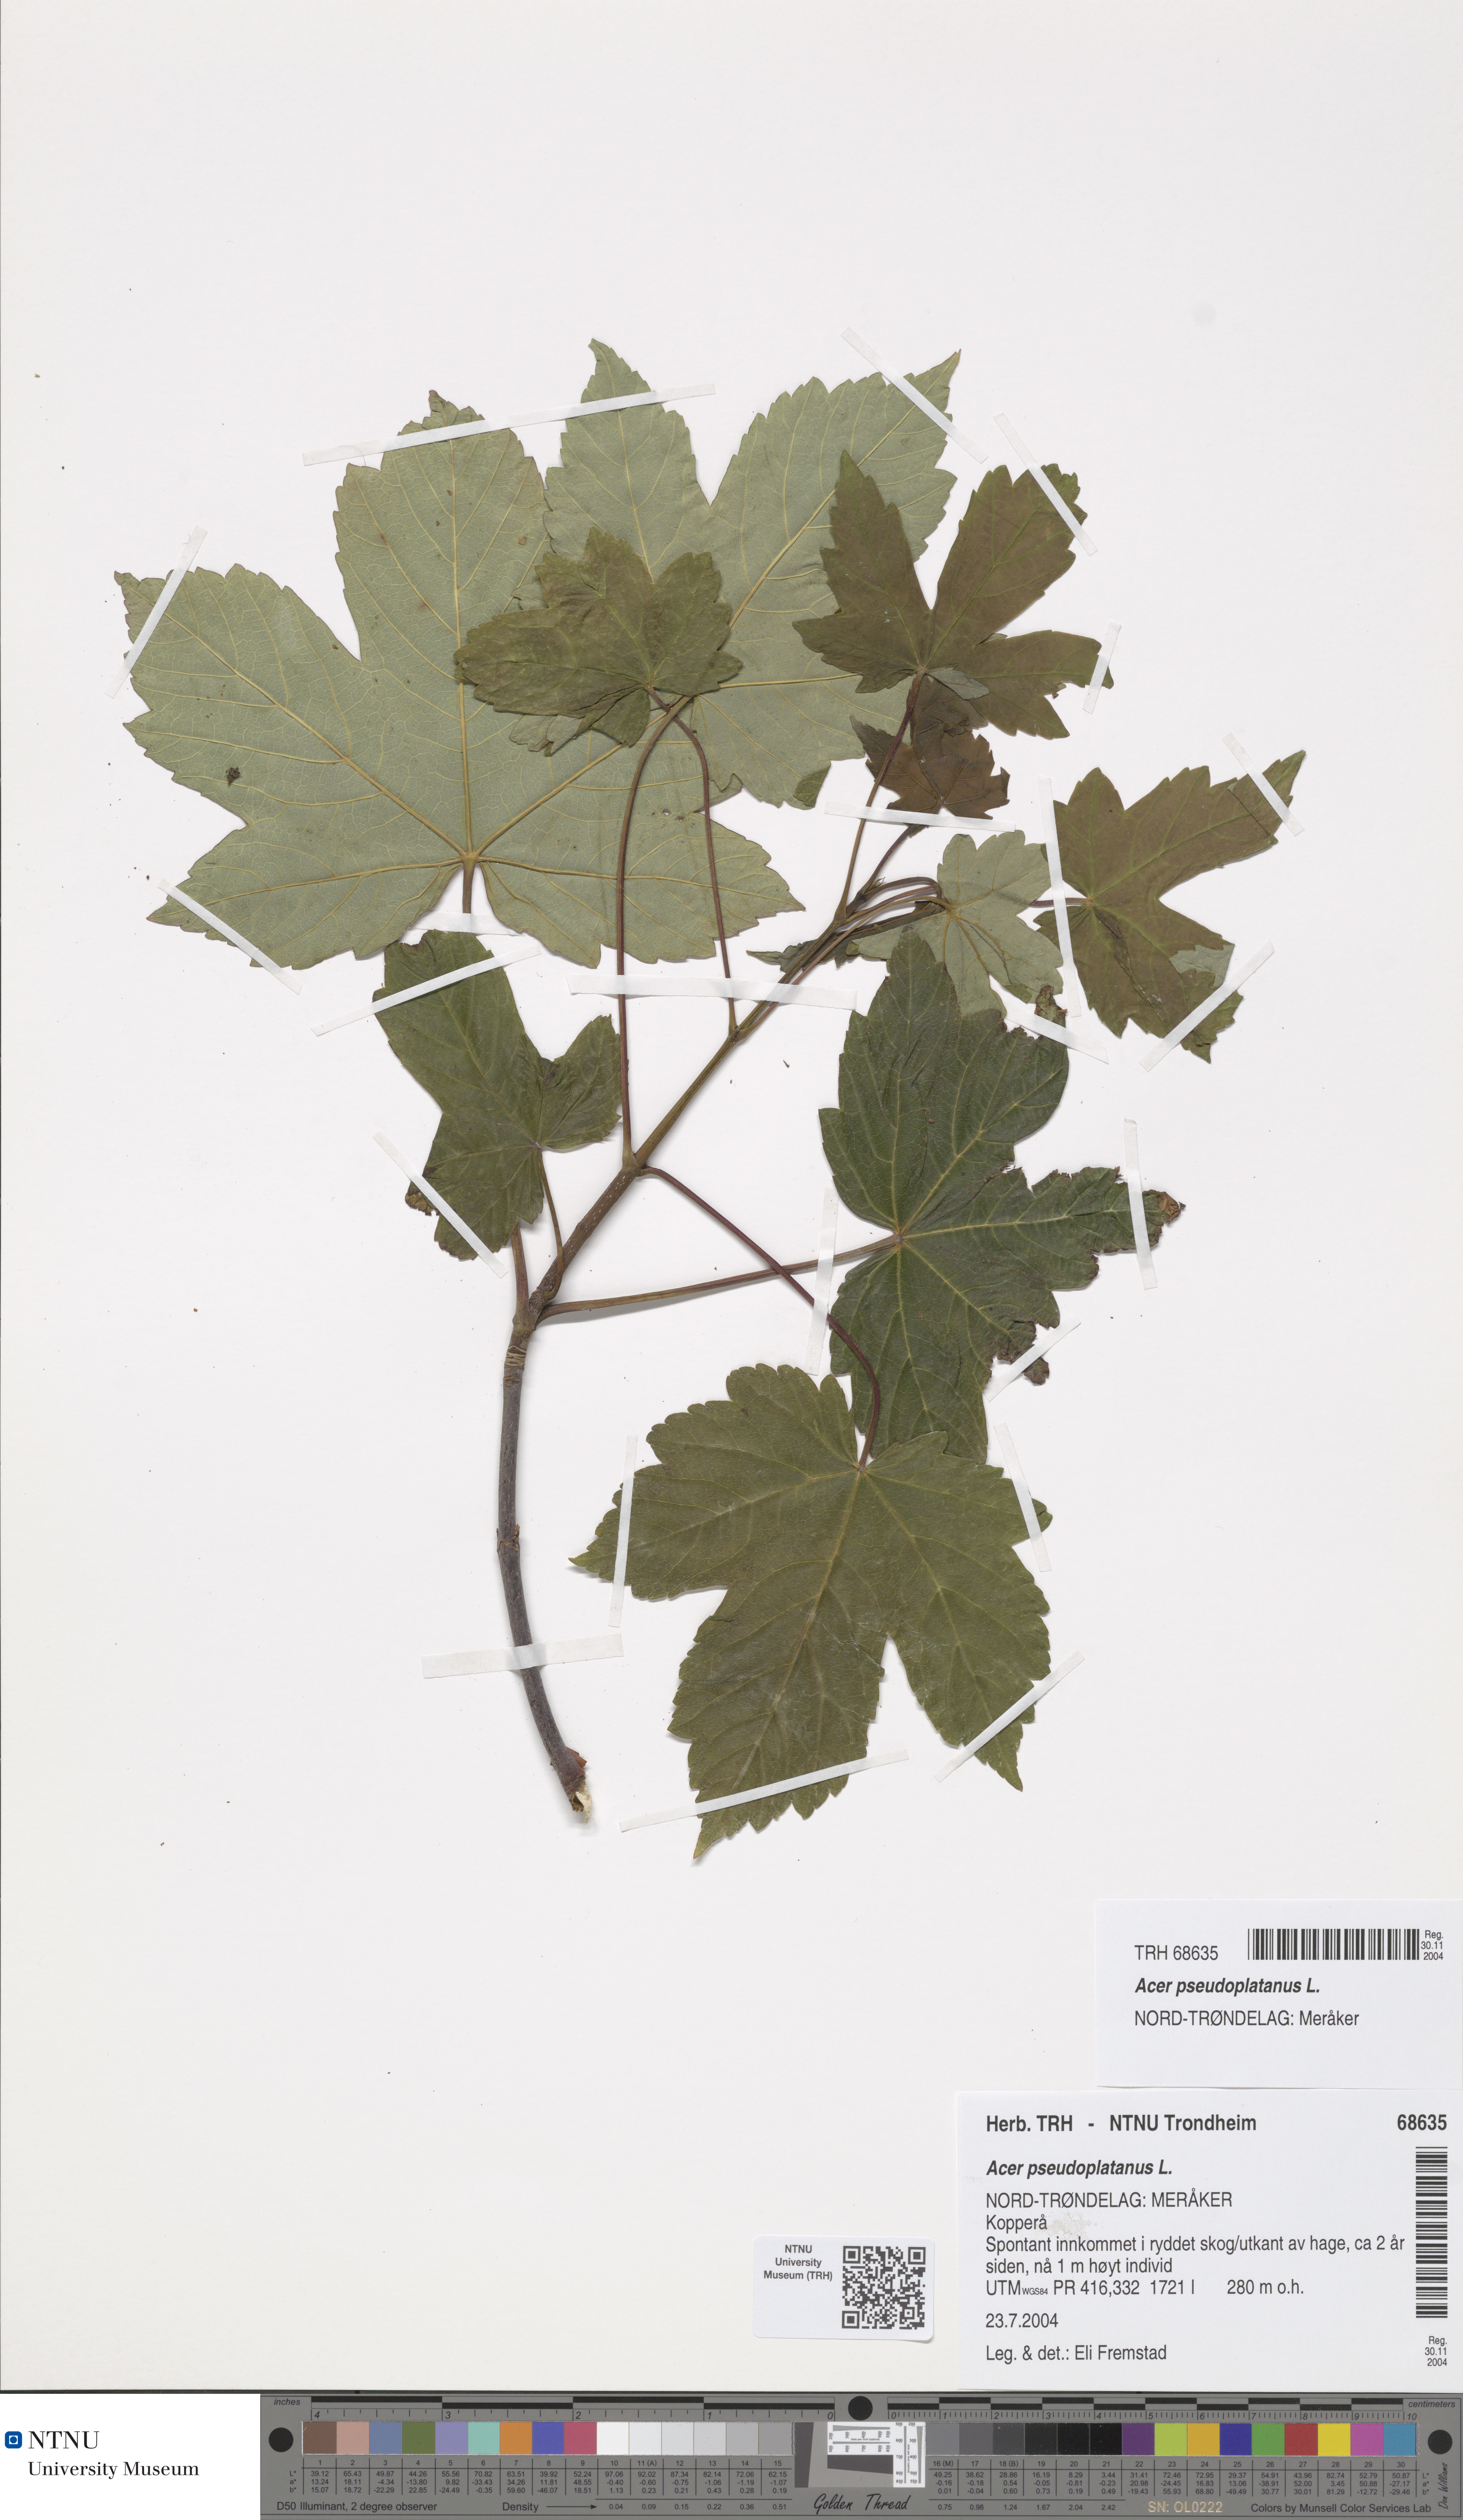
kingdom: Plantae
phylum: Tracheophyta
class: Magnoliopsida
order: Sapindales
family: Sapindaceae
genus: Acer
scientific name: Acer pseudoplatanus
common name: Sycamore
